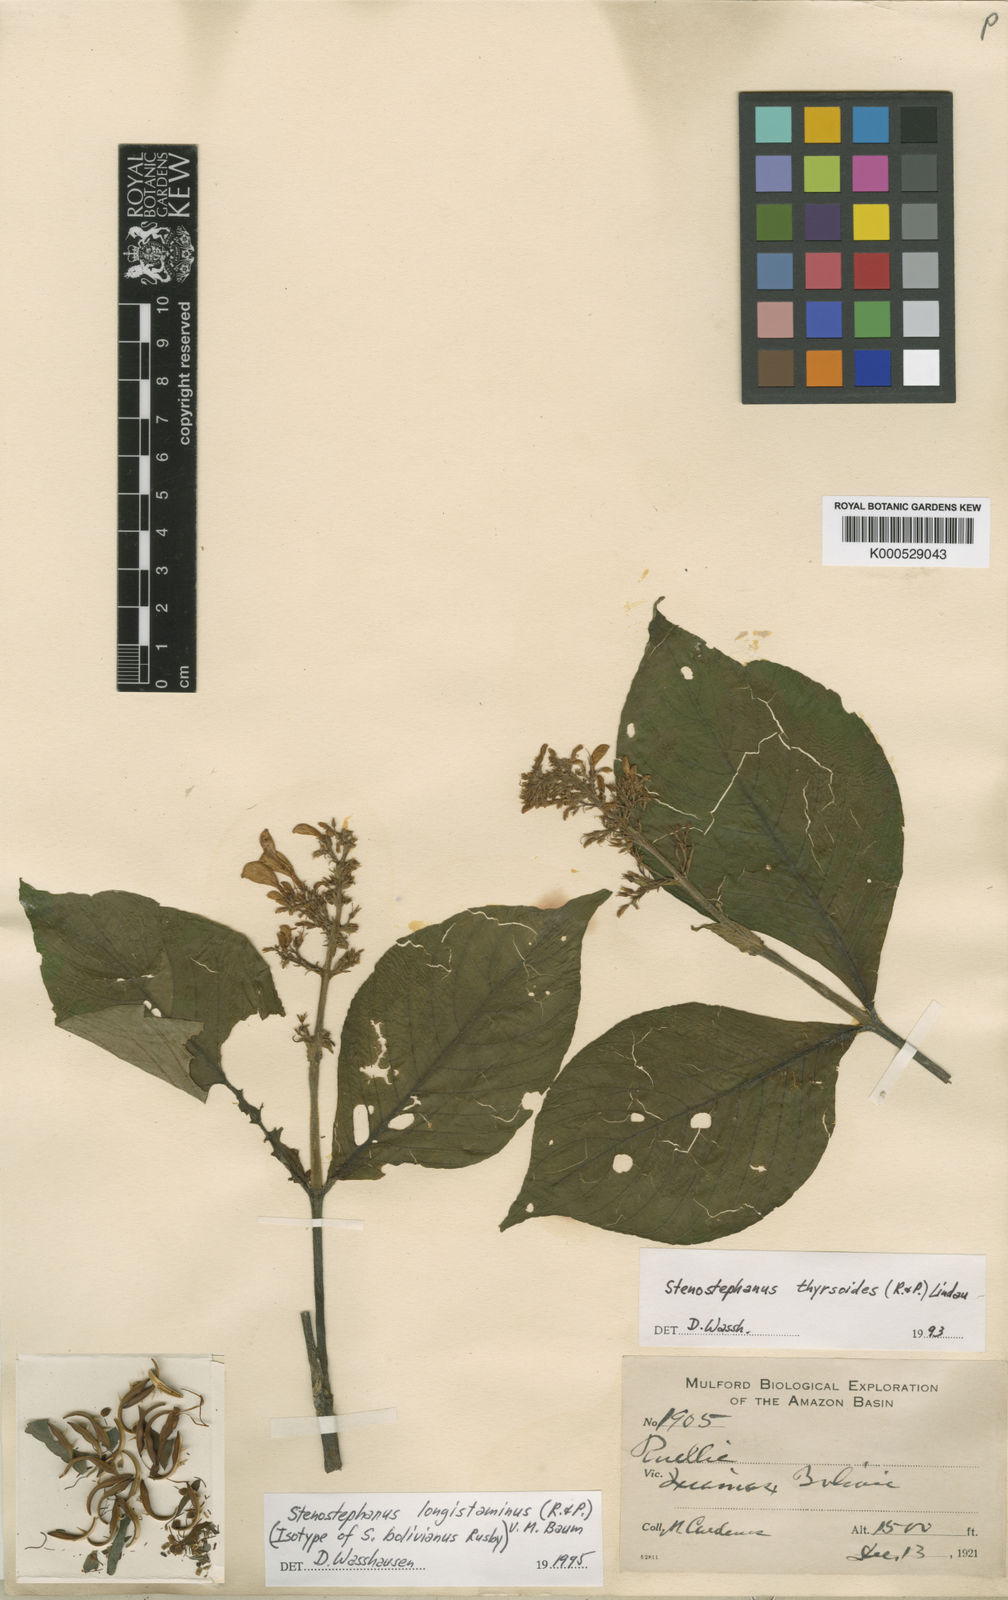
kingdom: Plantae
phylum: Tracheophyta
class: Magnoliopsida
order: Lamiales
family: Acanthaceae
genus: Stenostephanus
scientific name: Stenostephanus longistaminus
